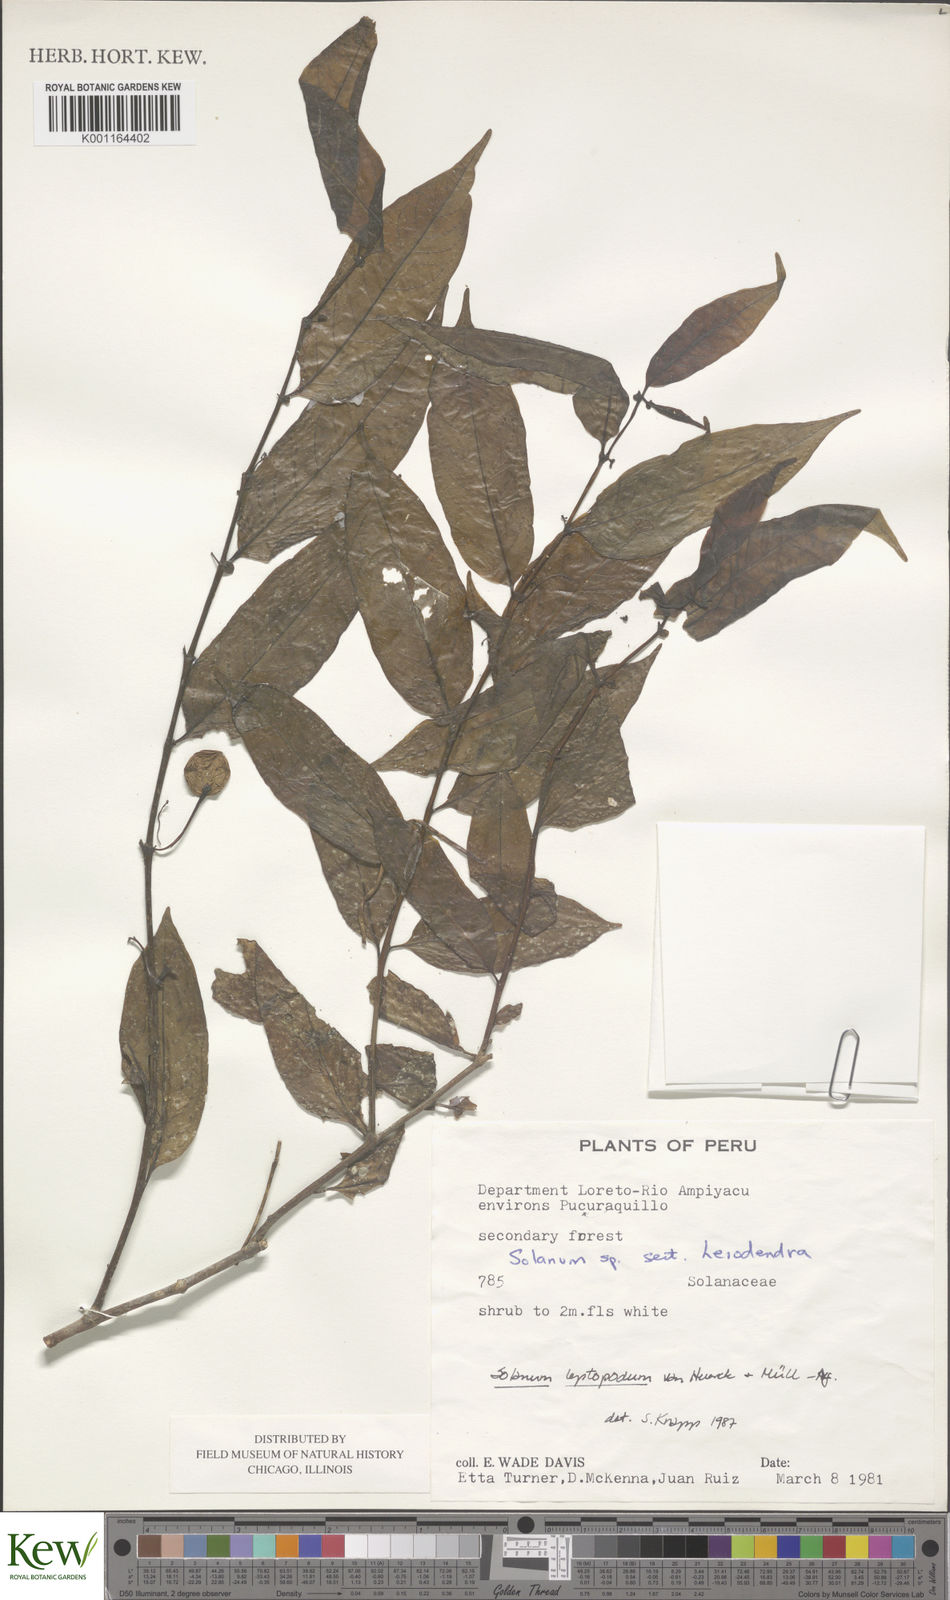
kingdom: Plantae
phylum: Tracheophyta
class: Magnoliopsida
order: Solanales
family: Solanaceae
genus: Solanum
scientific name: Solanum leptopodum
